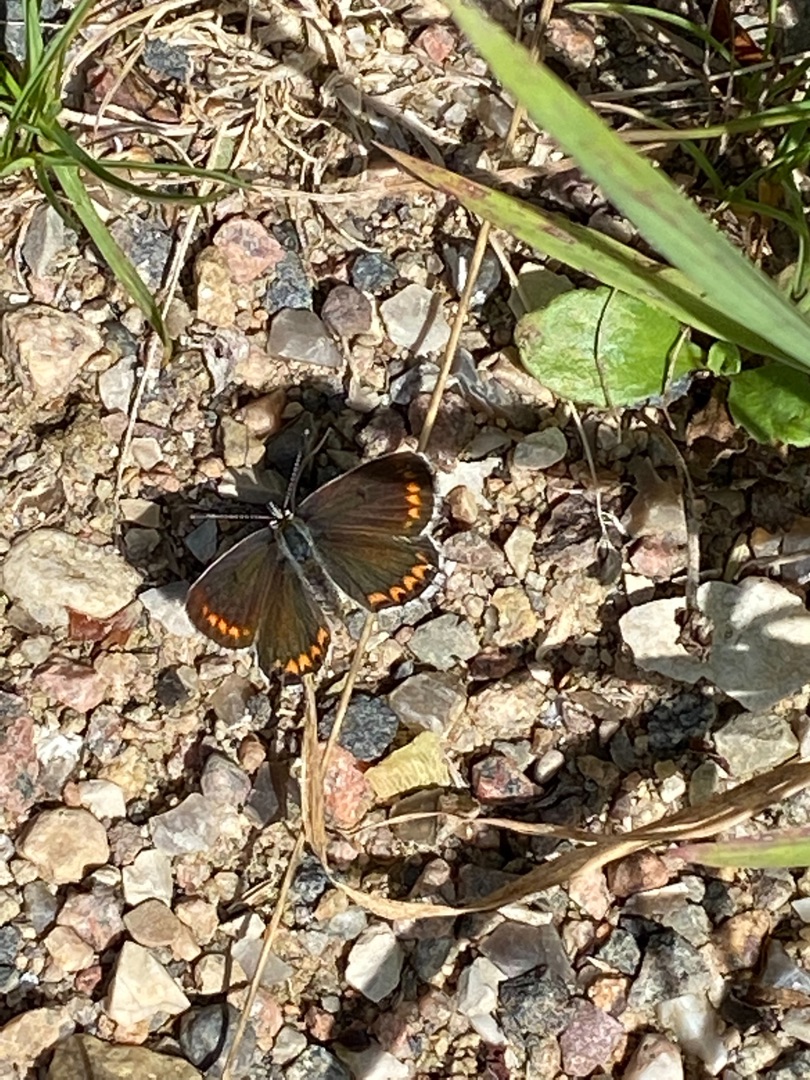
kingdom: Animalia
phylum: Arthropoda
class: Insecta
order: Lepidoptera
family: Lycaenidae
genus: Aricia
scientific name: Aricia agestis
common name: Rødplettet blåfugl
